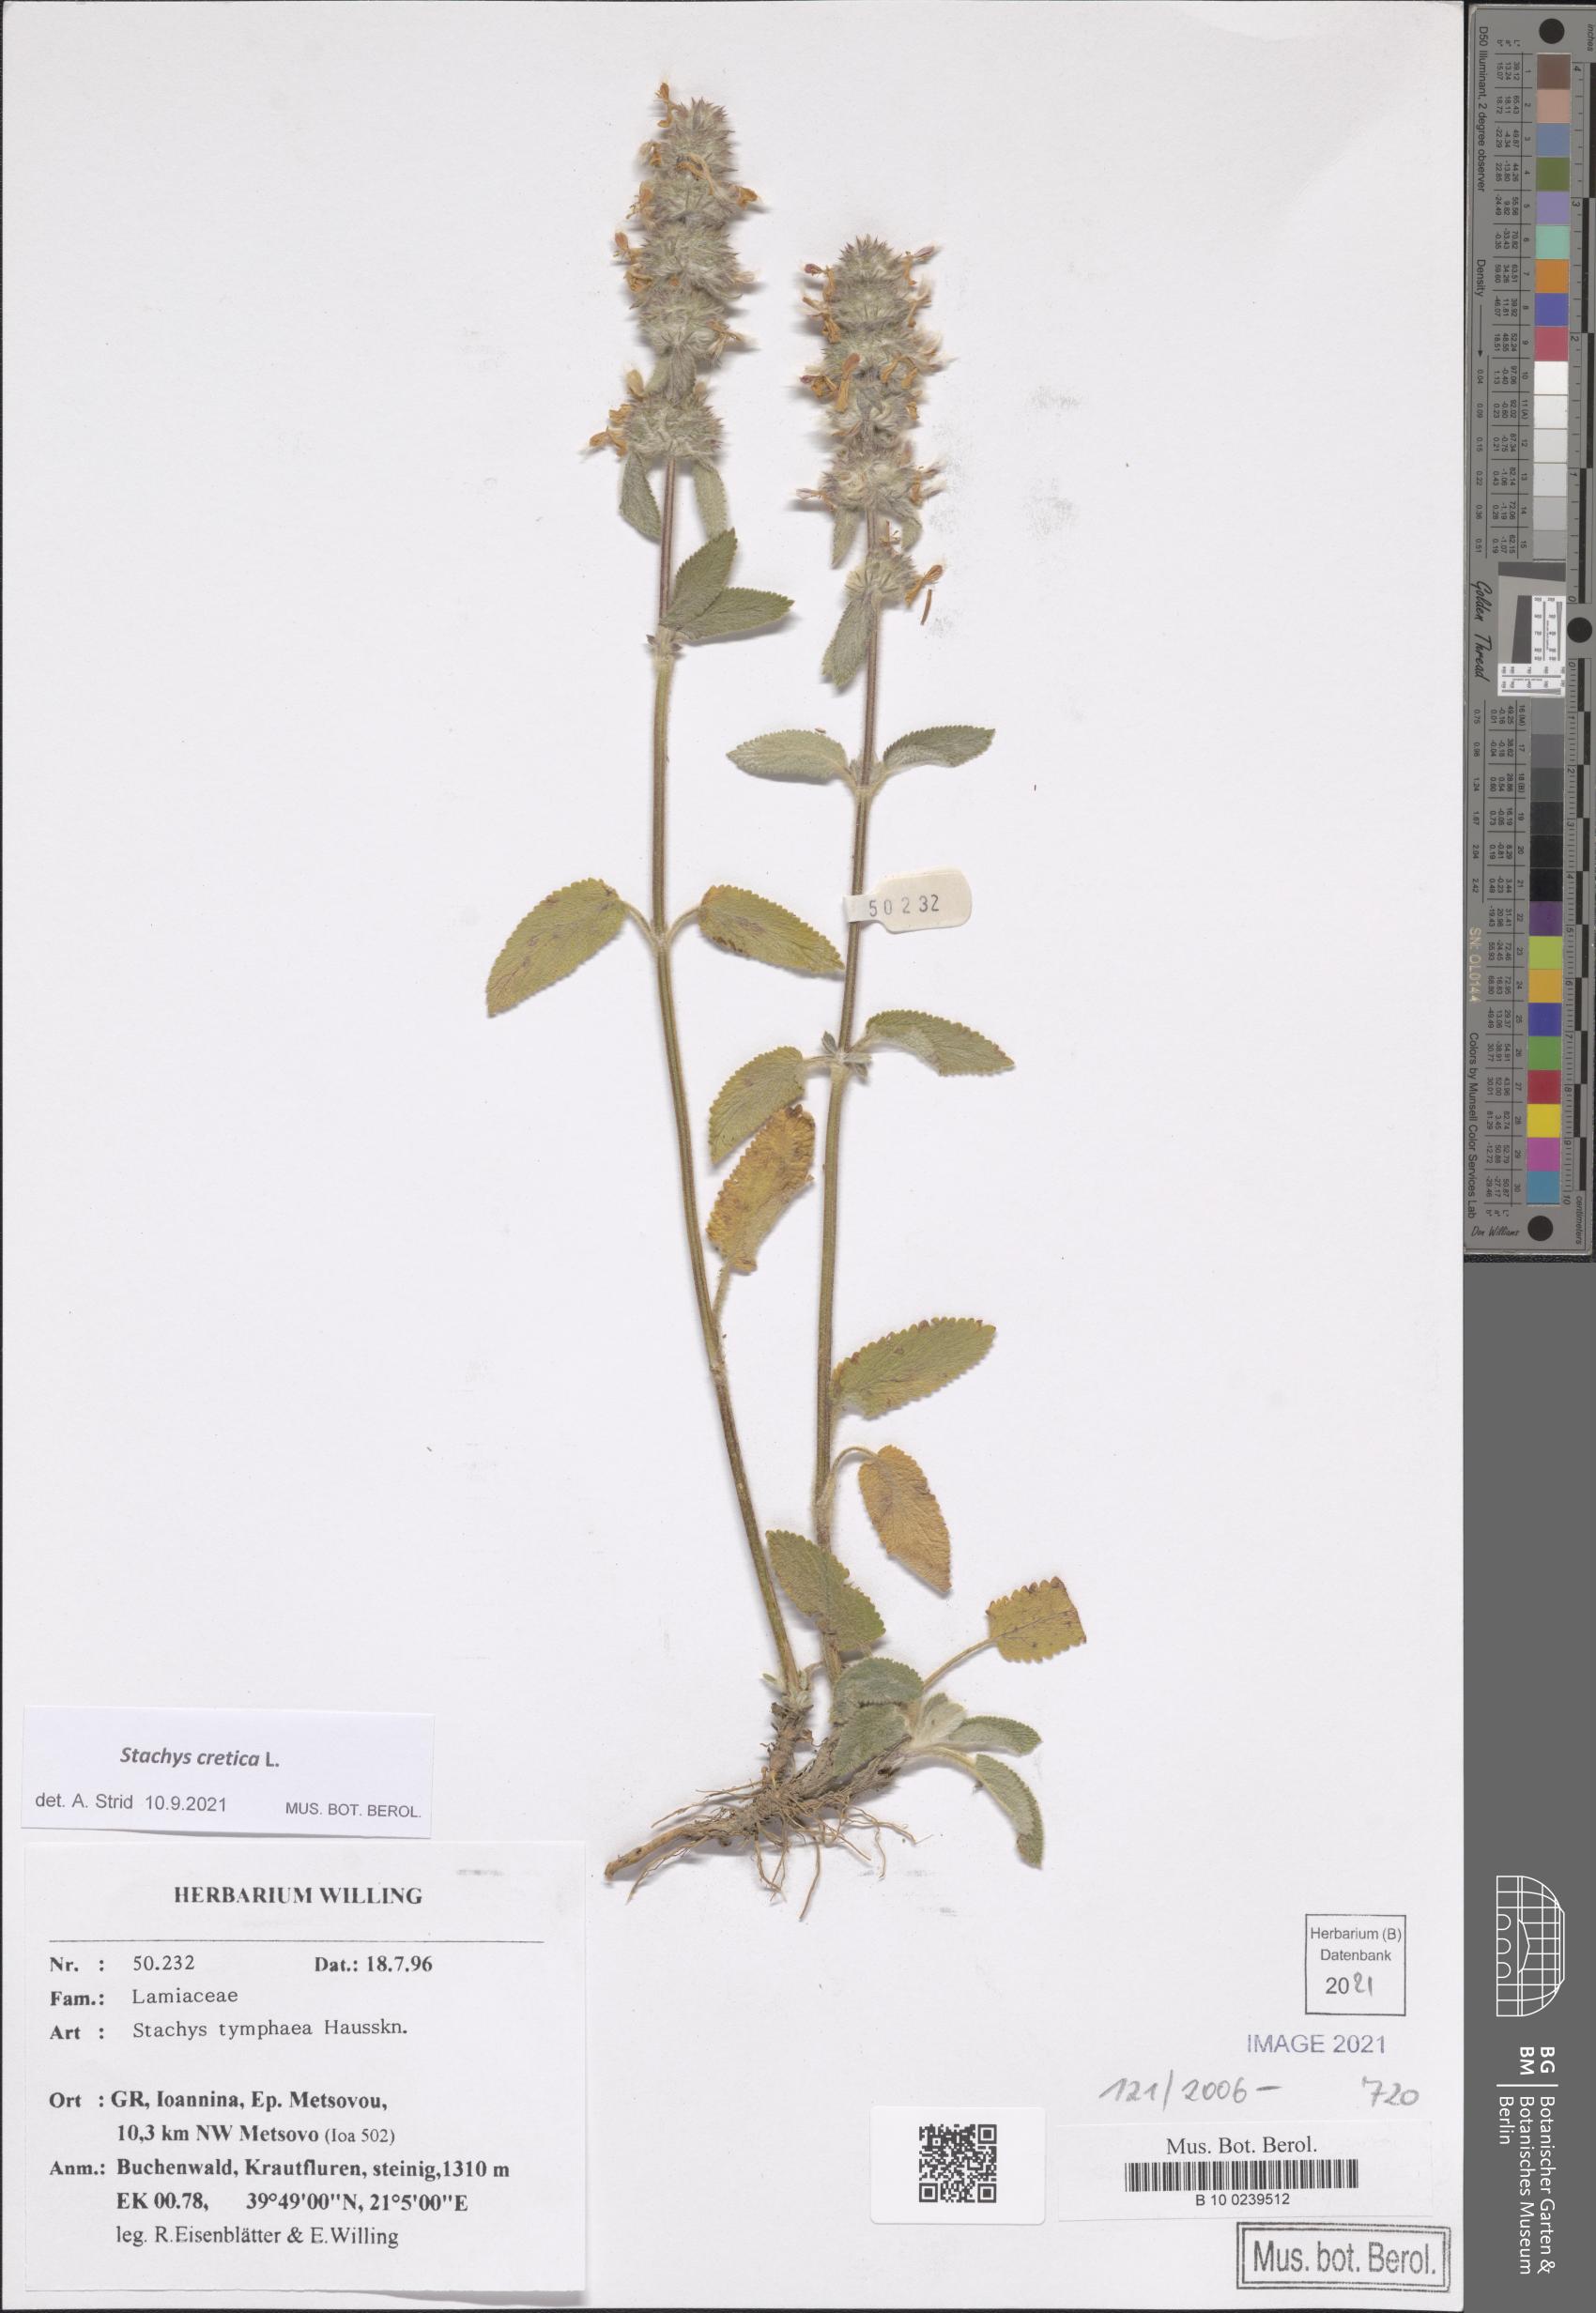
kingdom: Plantae
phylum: Tracheophyta
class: Magnoliopsida
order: Lamiales
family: Lamiaceae
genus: Stachys
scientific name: Stachys cretica
